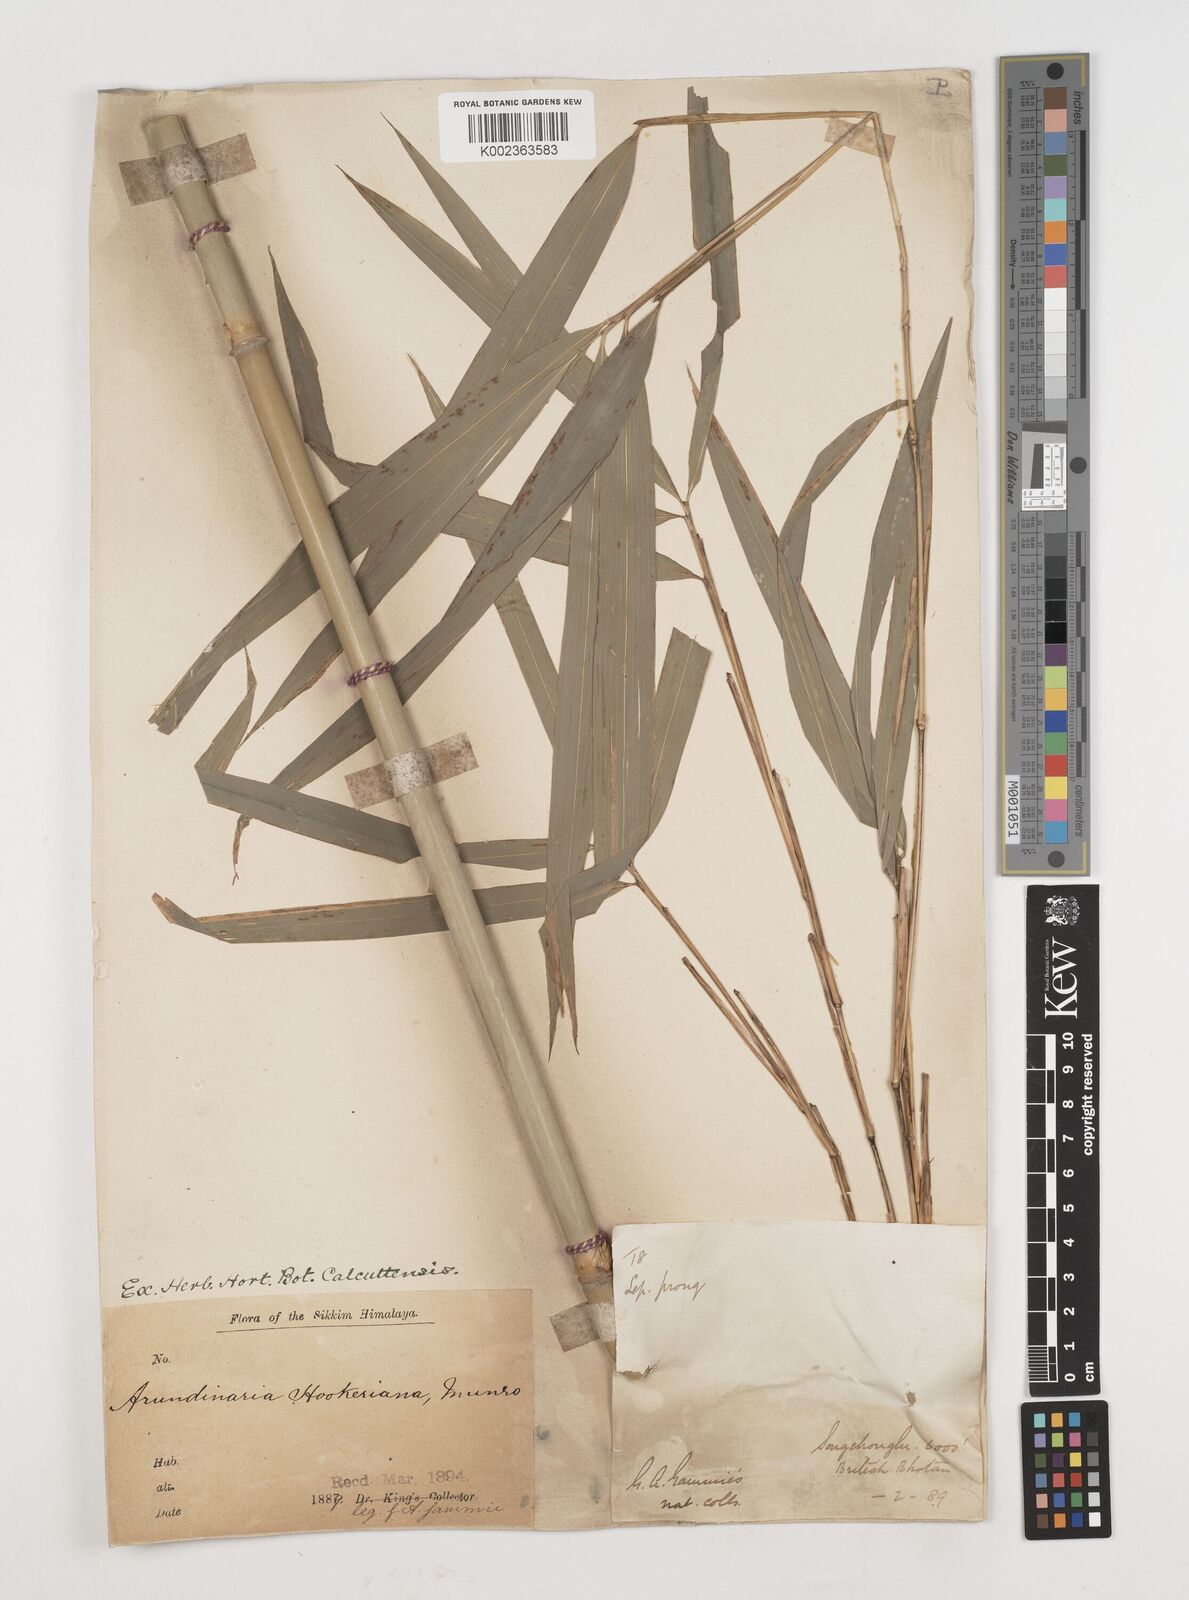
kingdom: Plantae
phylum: Tracheophyta
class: Liliopsida
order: Poales
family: Poaceae
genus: Himalayacalamus
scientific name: Himalayacalamus hookerianus
